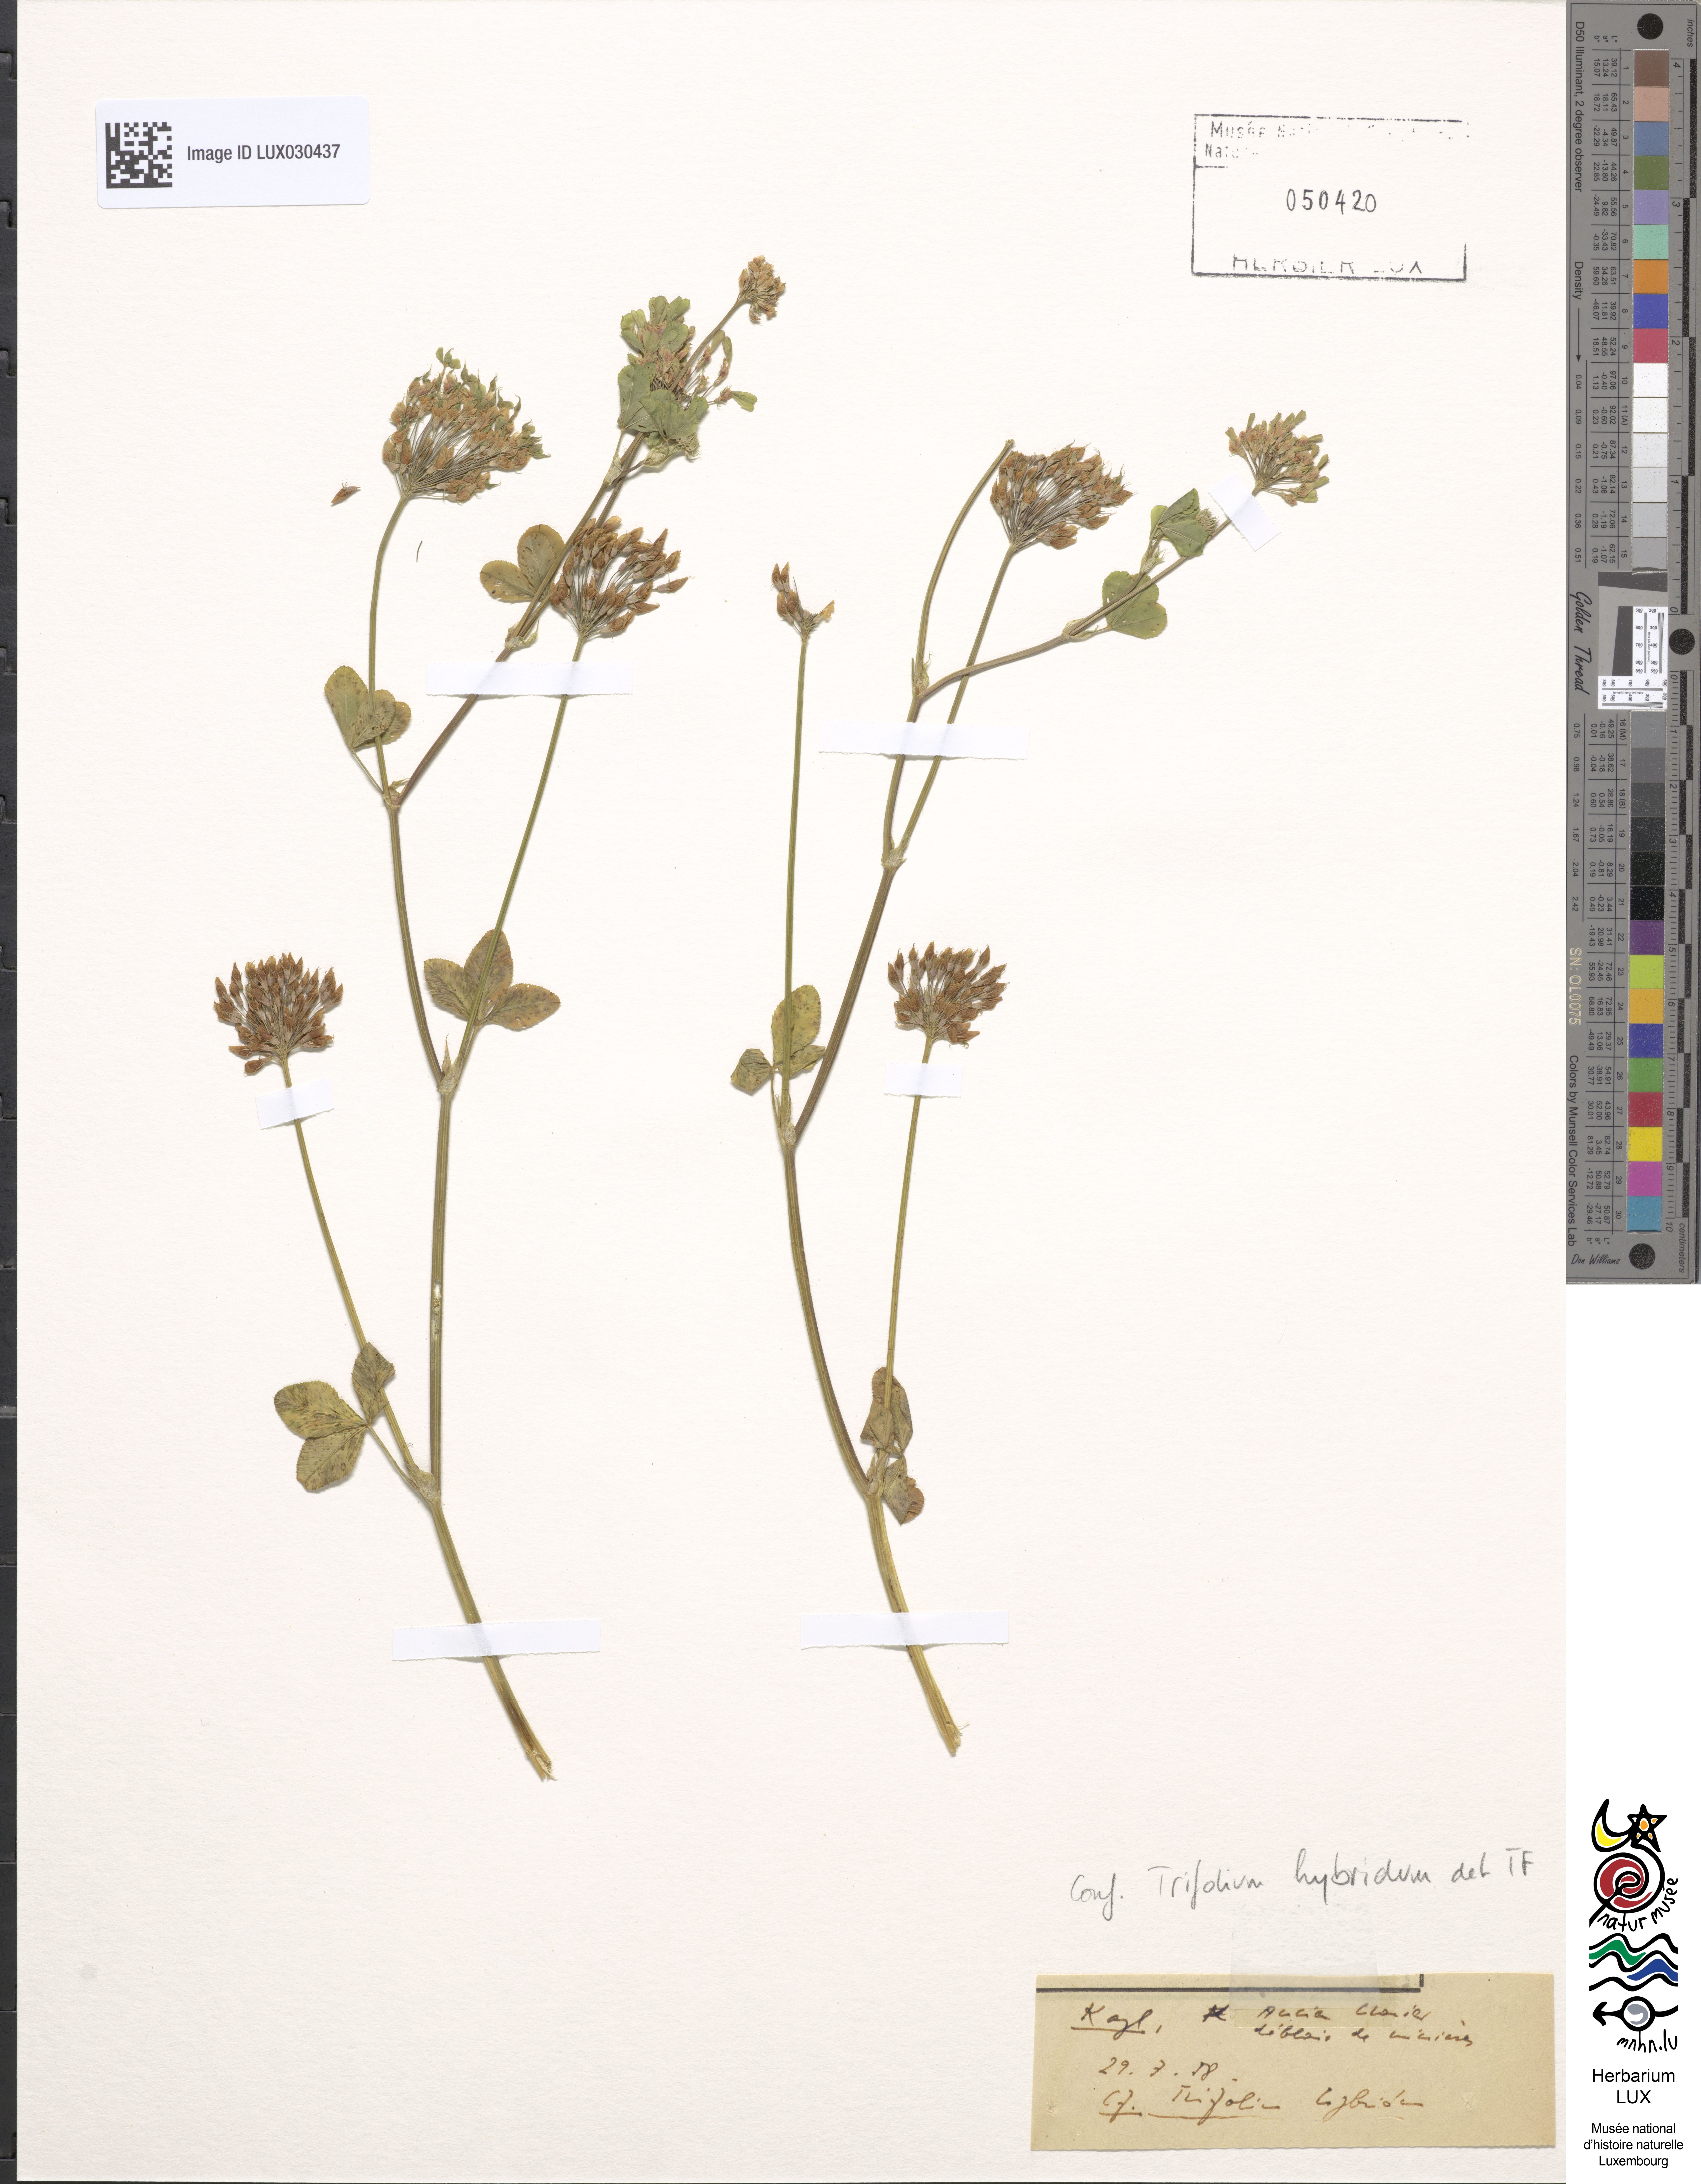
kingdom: Plantae
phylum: Tracheophyta
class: Magnoliopsida
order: Fabales
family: Fabaceae
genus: Trifolium
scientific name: Trifolium hybridum
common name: Alsike clover
